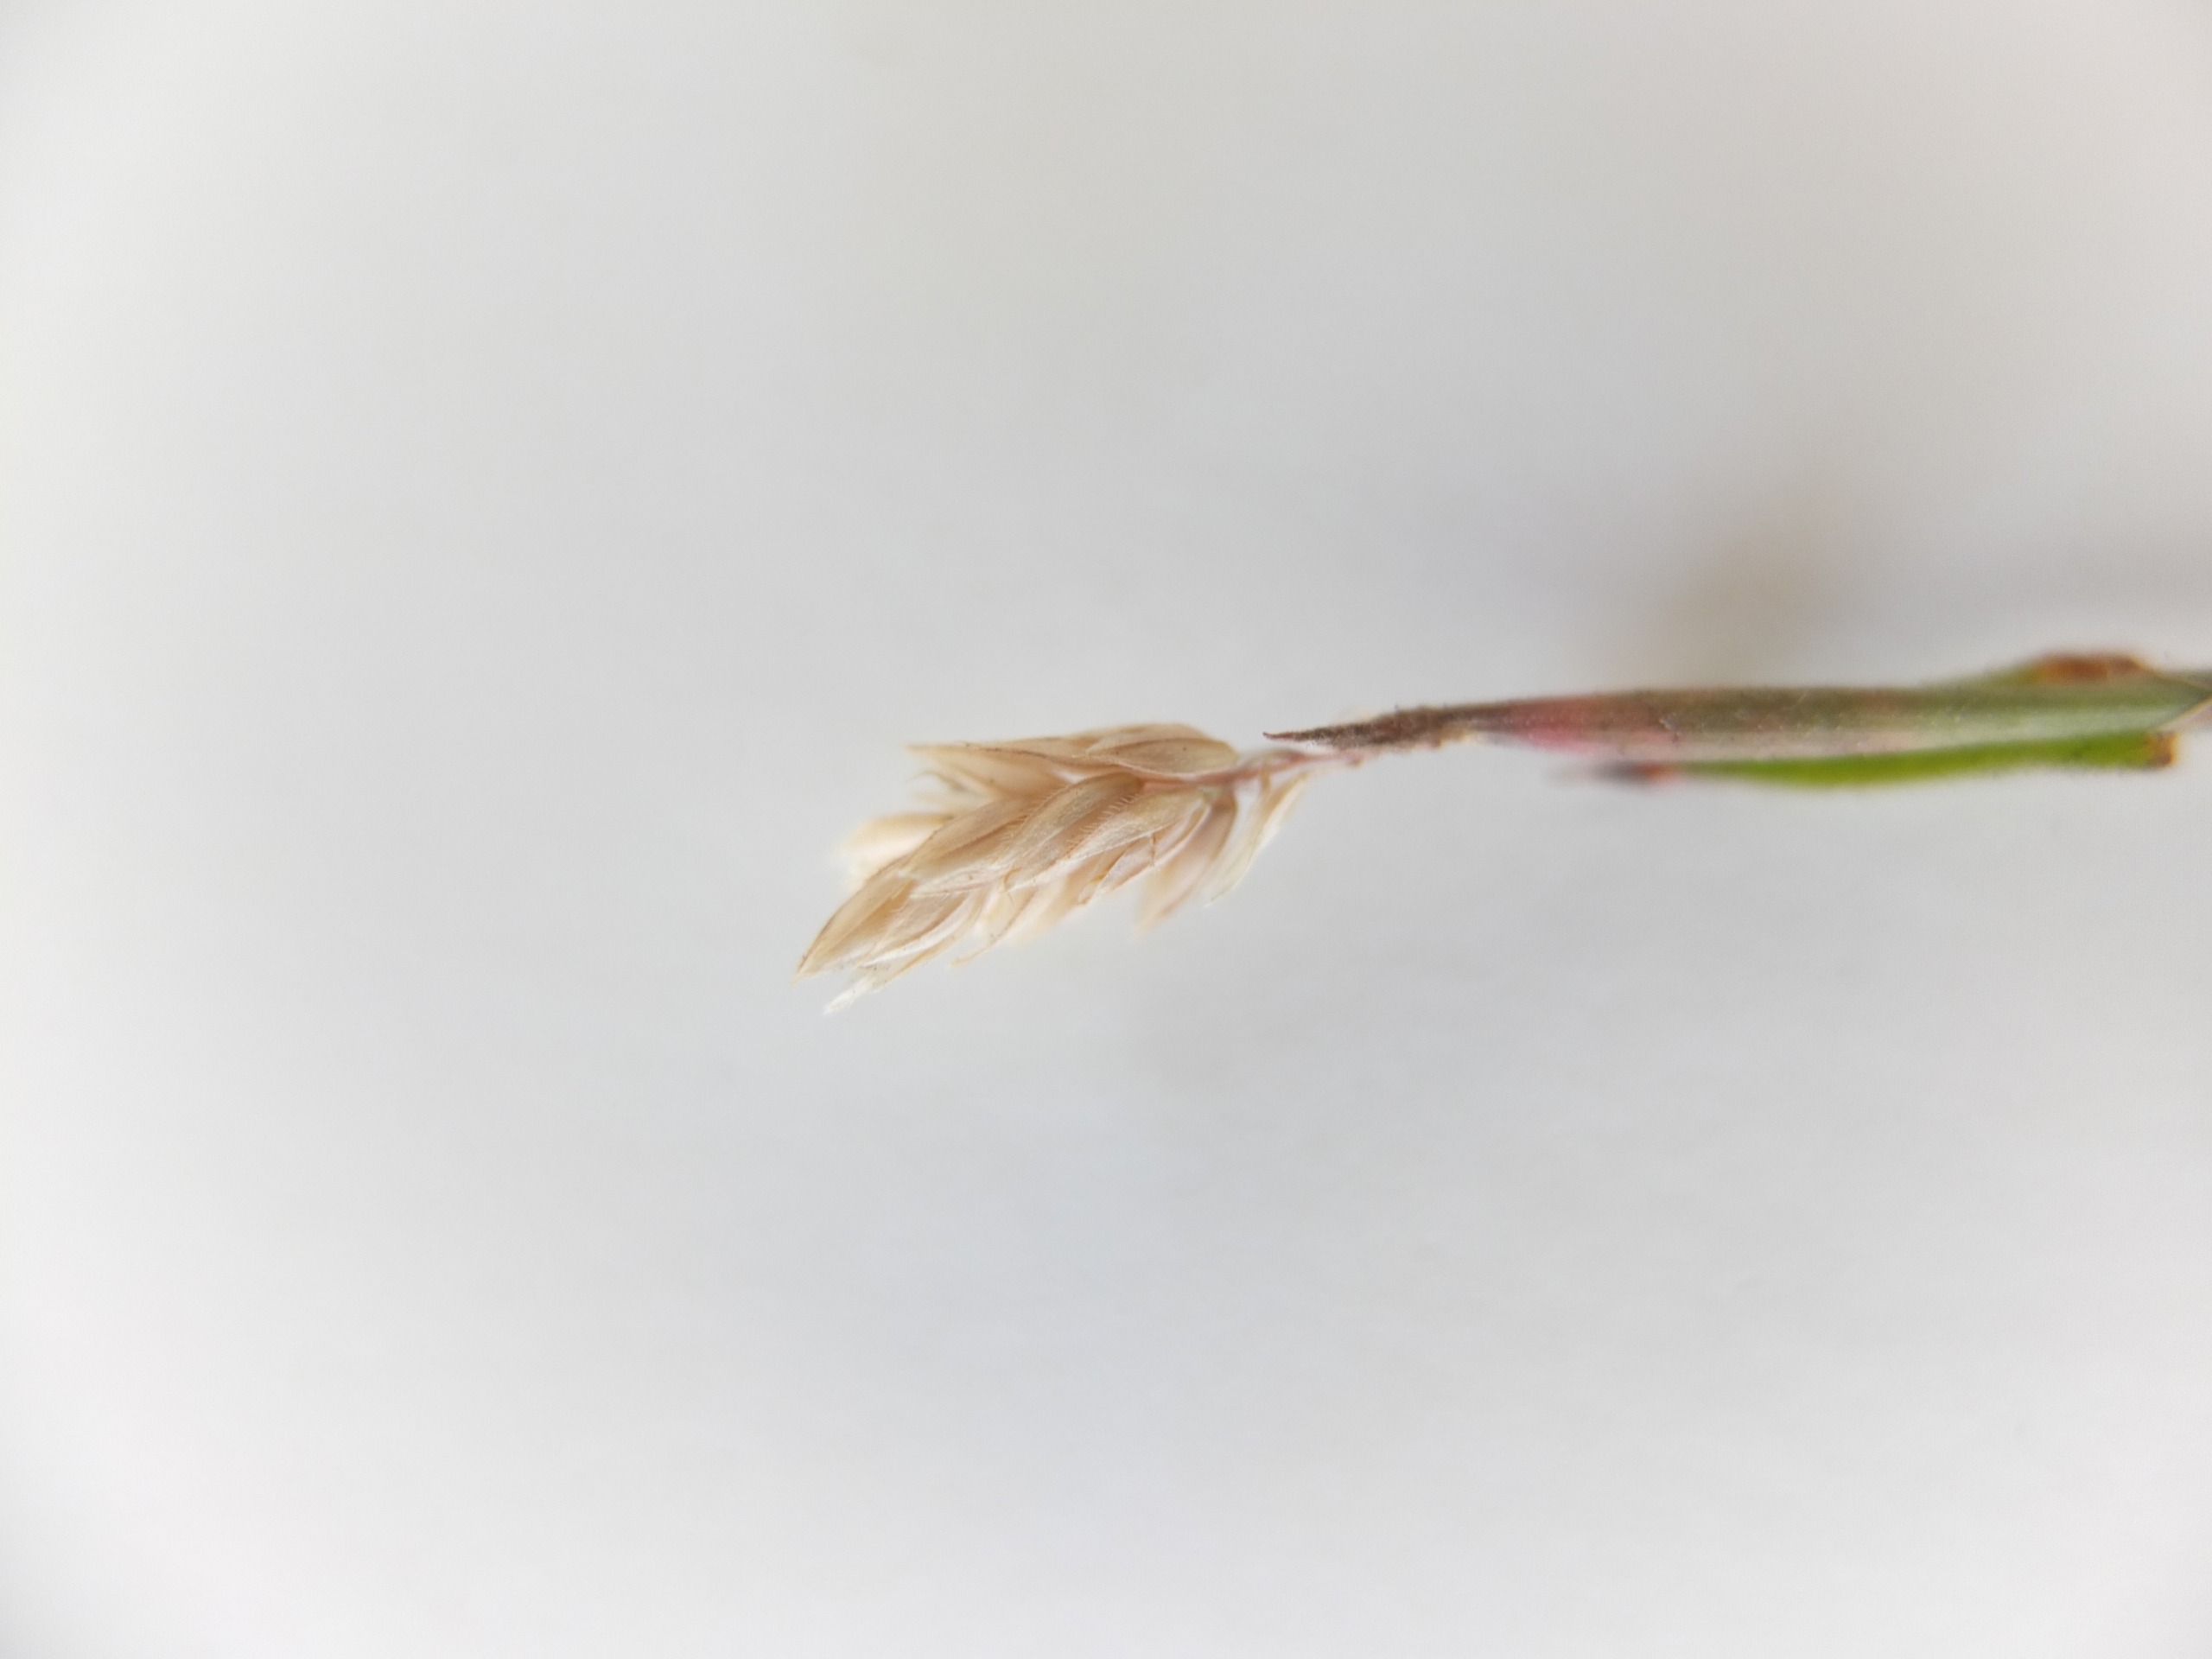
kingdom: Plantae
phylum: Tracheophyta
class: Liliopsida
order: Poales
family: Poaceae
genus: Holcus
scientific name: Holcus lanatus
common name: Fløjlsgræs
